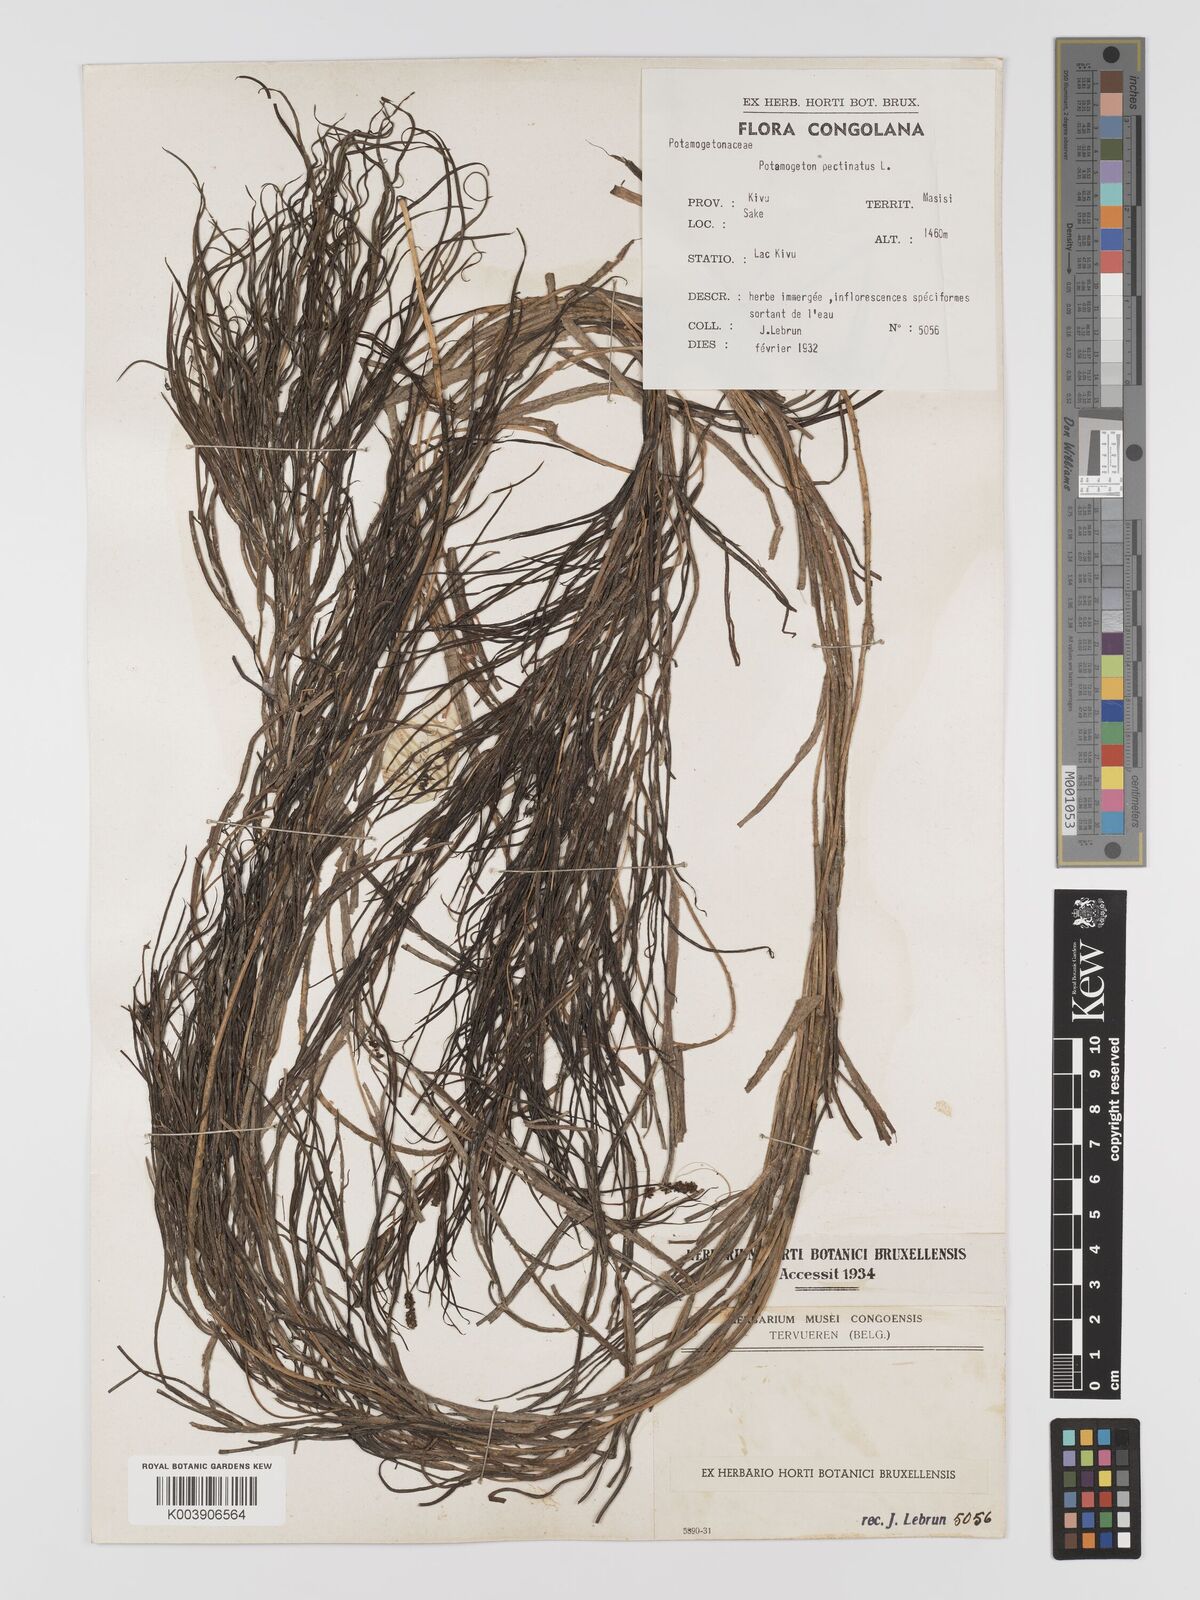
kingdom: Plantae
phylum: Tracheophyta
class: Liliopsida
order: Alismatales
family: Potamogetonaceae
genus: Stuckenia
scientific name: Stuckenia pectinata
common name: Sago pondweed
